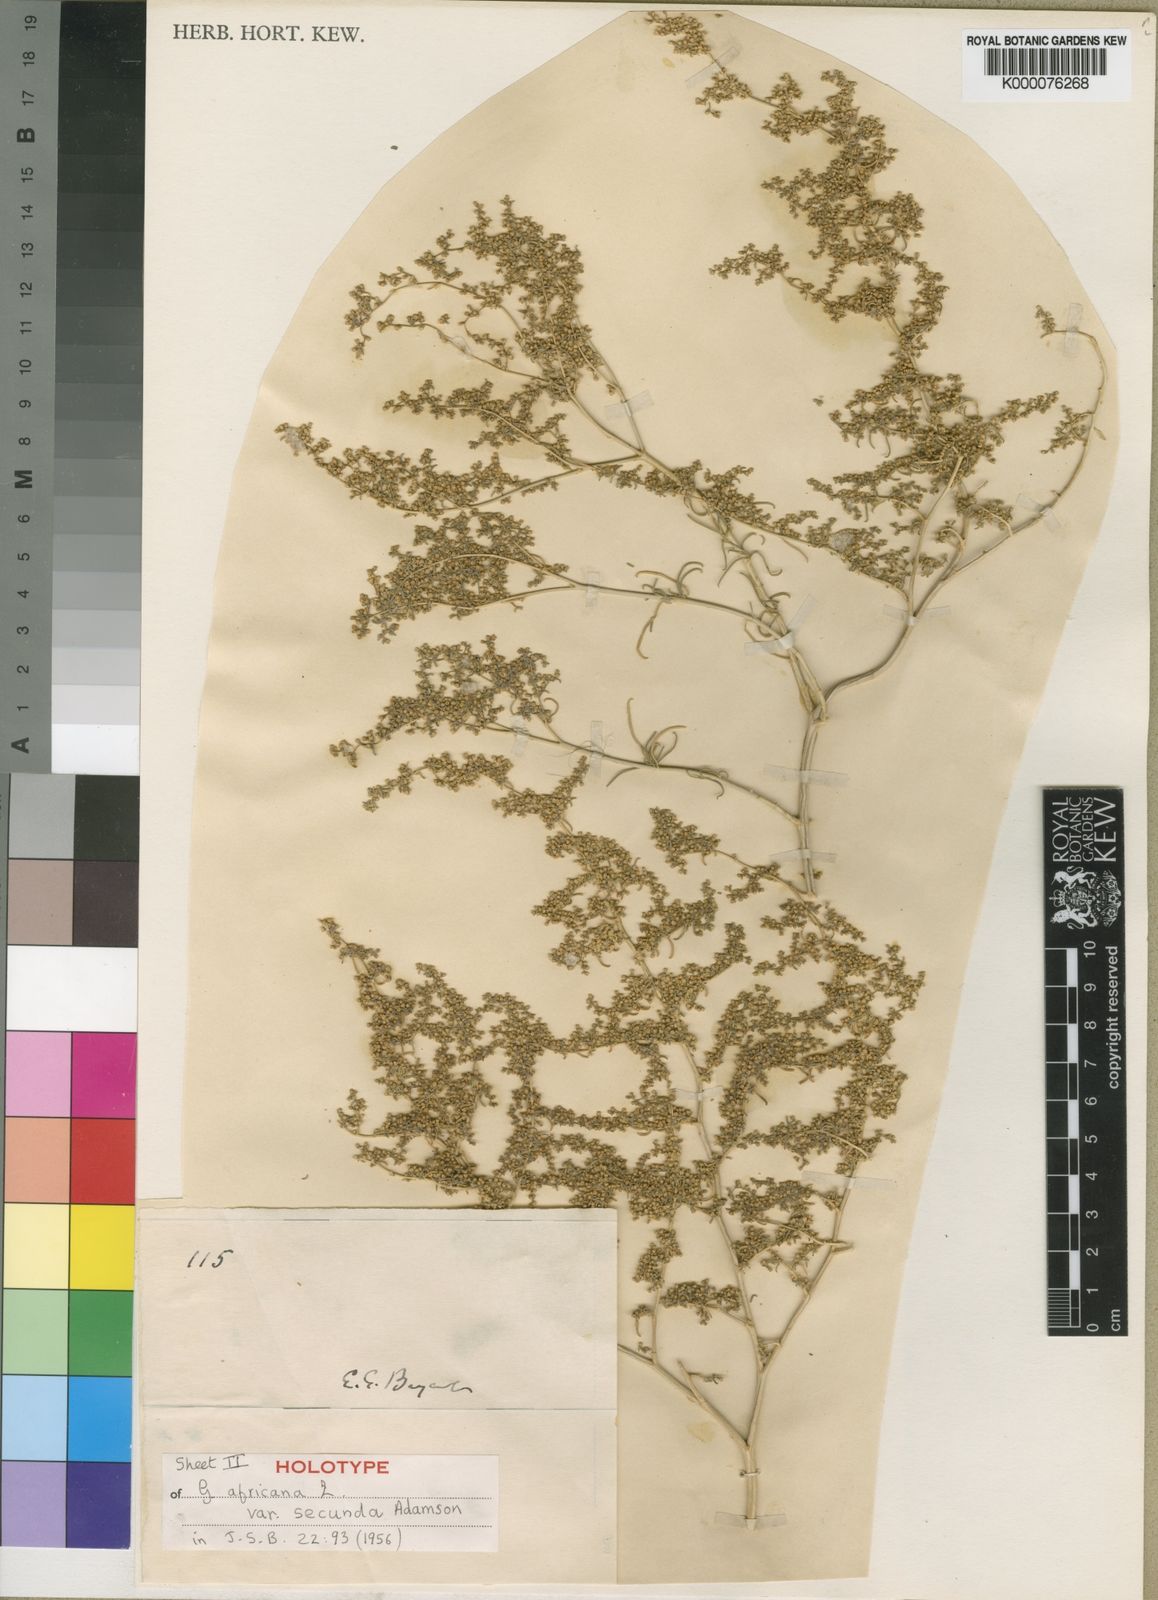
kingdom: Plantae
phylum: Tracheophyta
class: Magnoliopsida
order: Caryophyllales
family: Aizoaceae
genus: Aizoon
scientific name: Aizoon africanum
